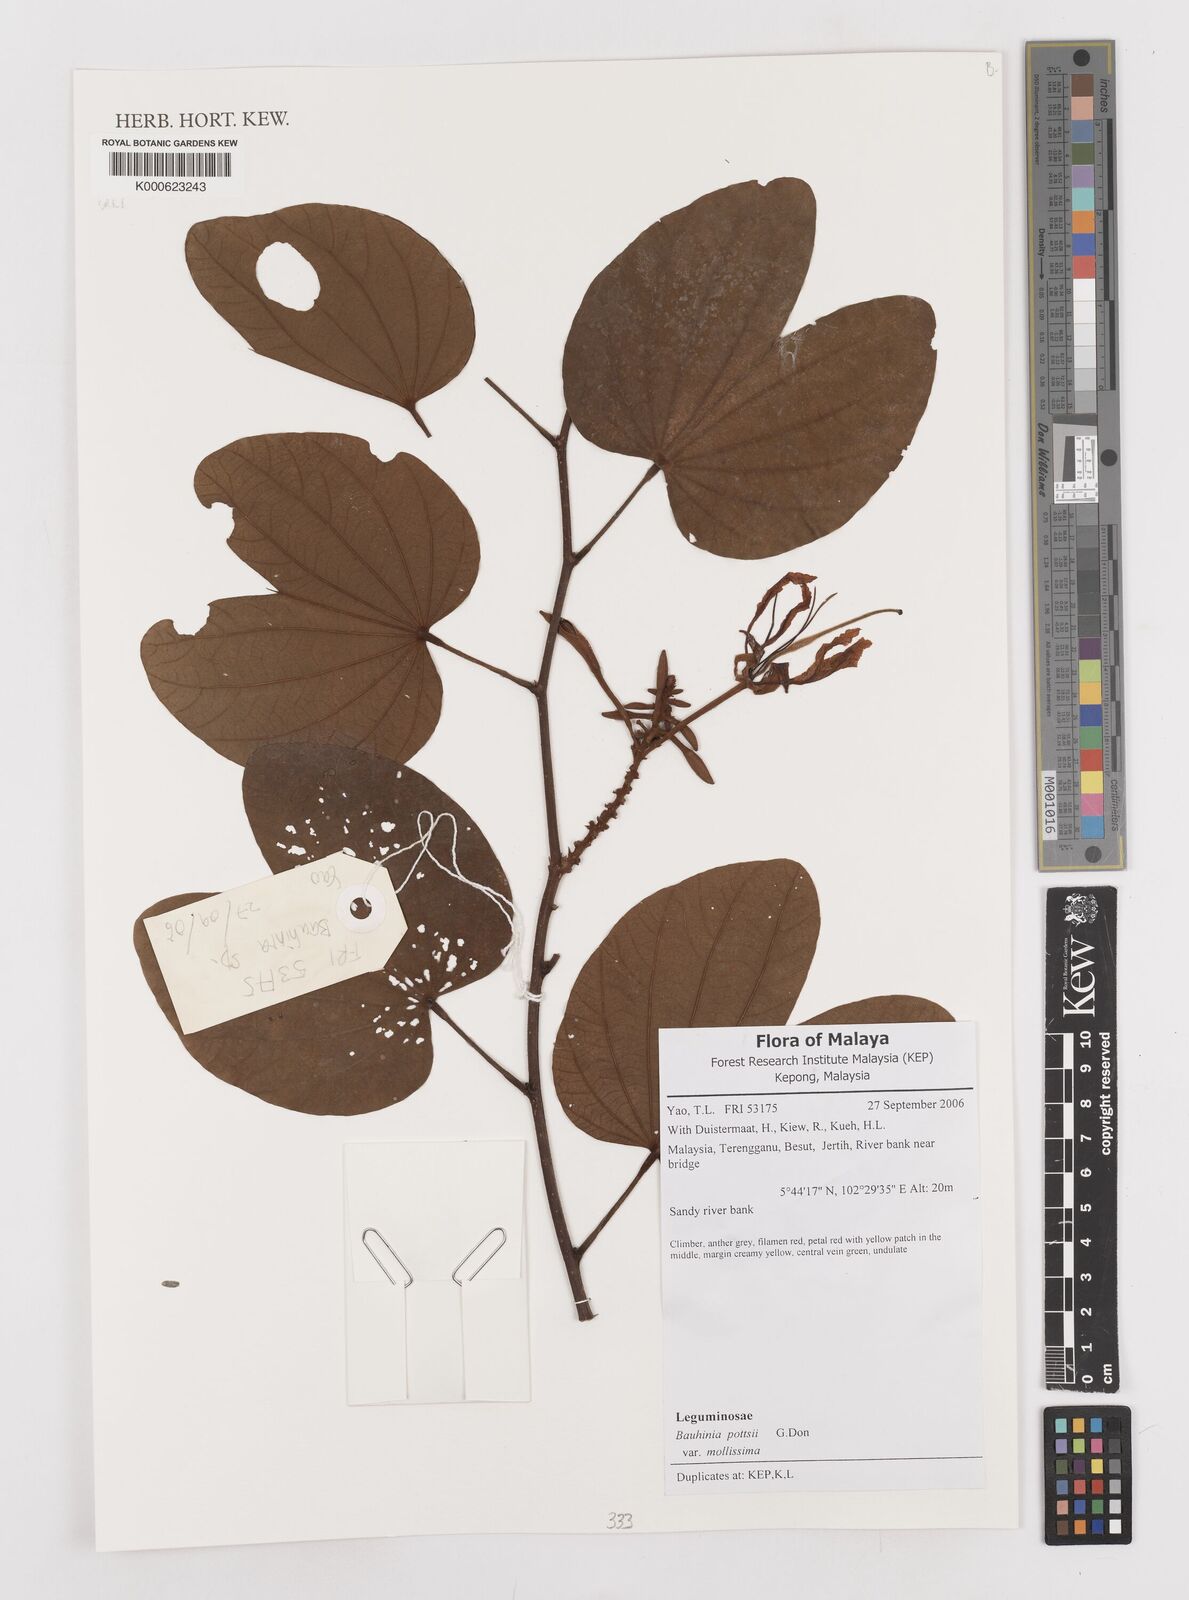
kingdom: Plantae
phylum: Tracheophyta
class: Magnoliopsida
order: Fabales
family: Fabaceae
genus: Bauhinia
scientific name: Bauhinia pottsii
